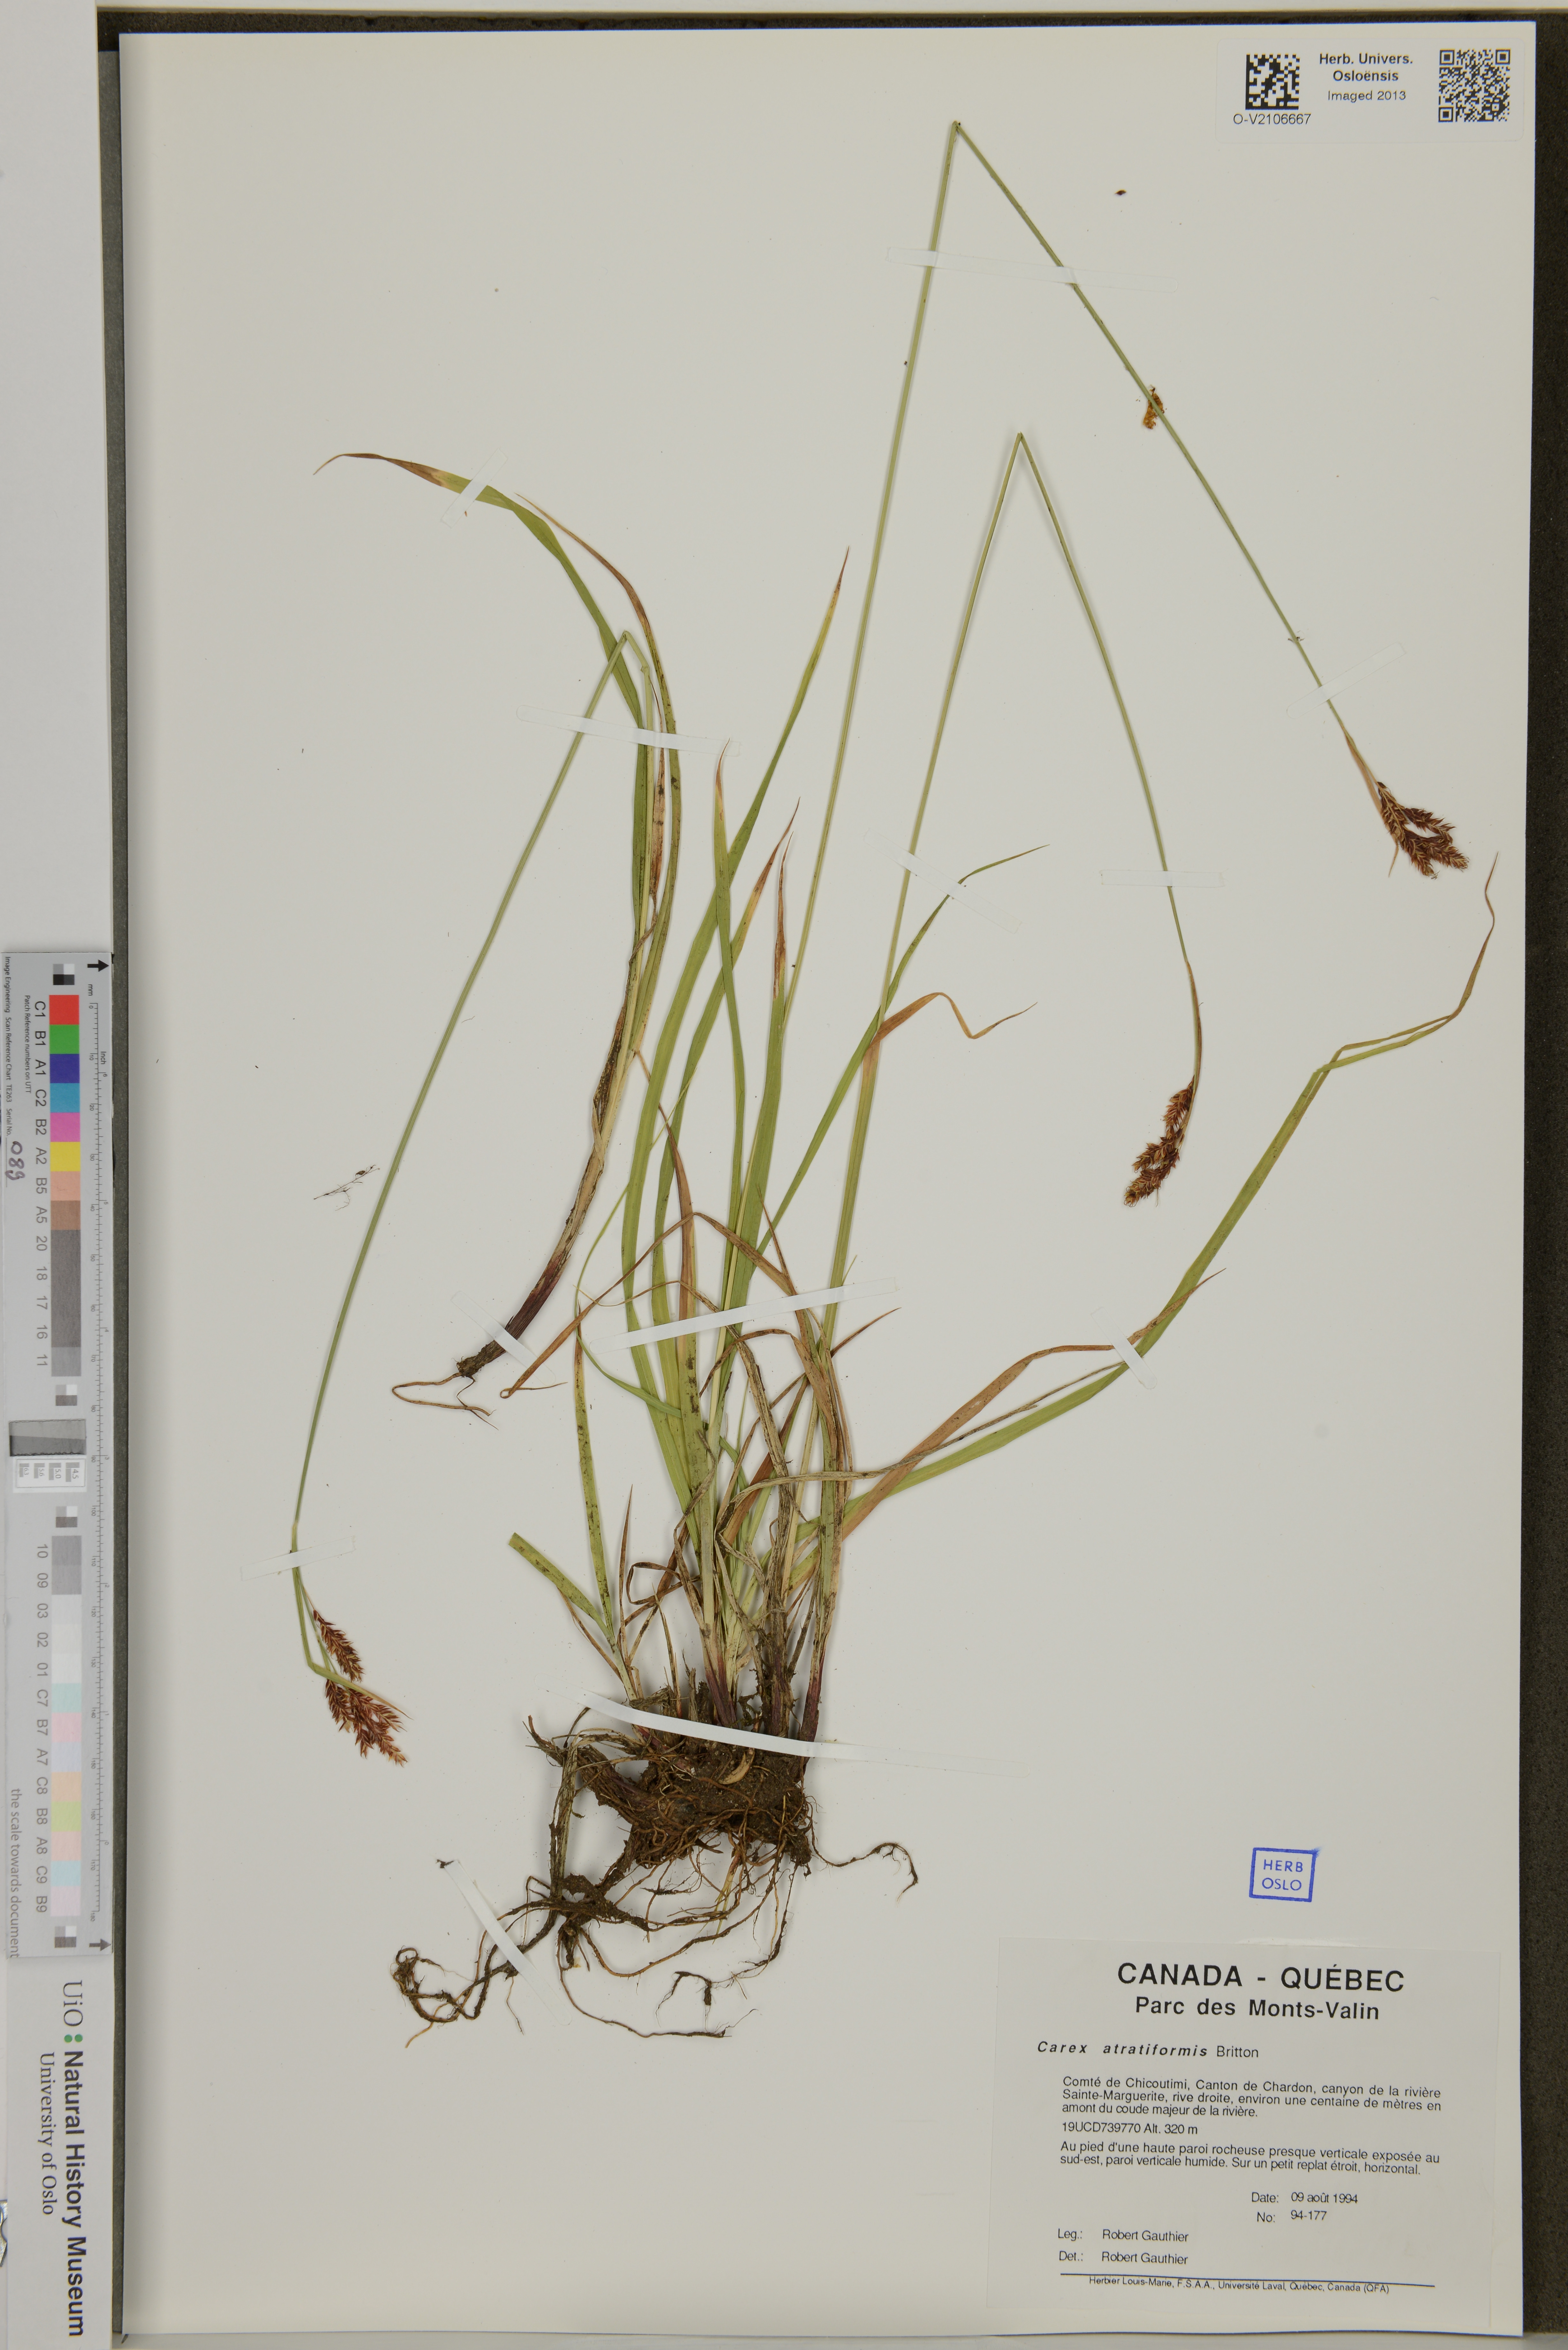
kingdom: Plantae
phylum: Tracheophyta
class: Liliopsida
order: Poales
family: Cyperaceae
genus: Carex
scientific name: Carex atratiformis
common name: Black sedge
